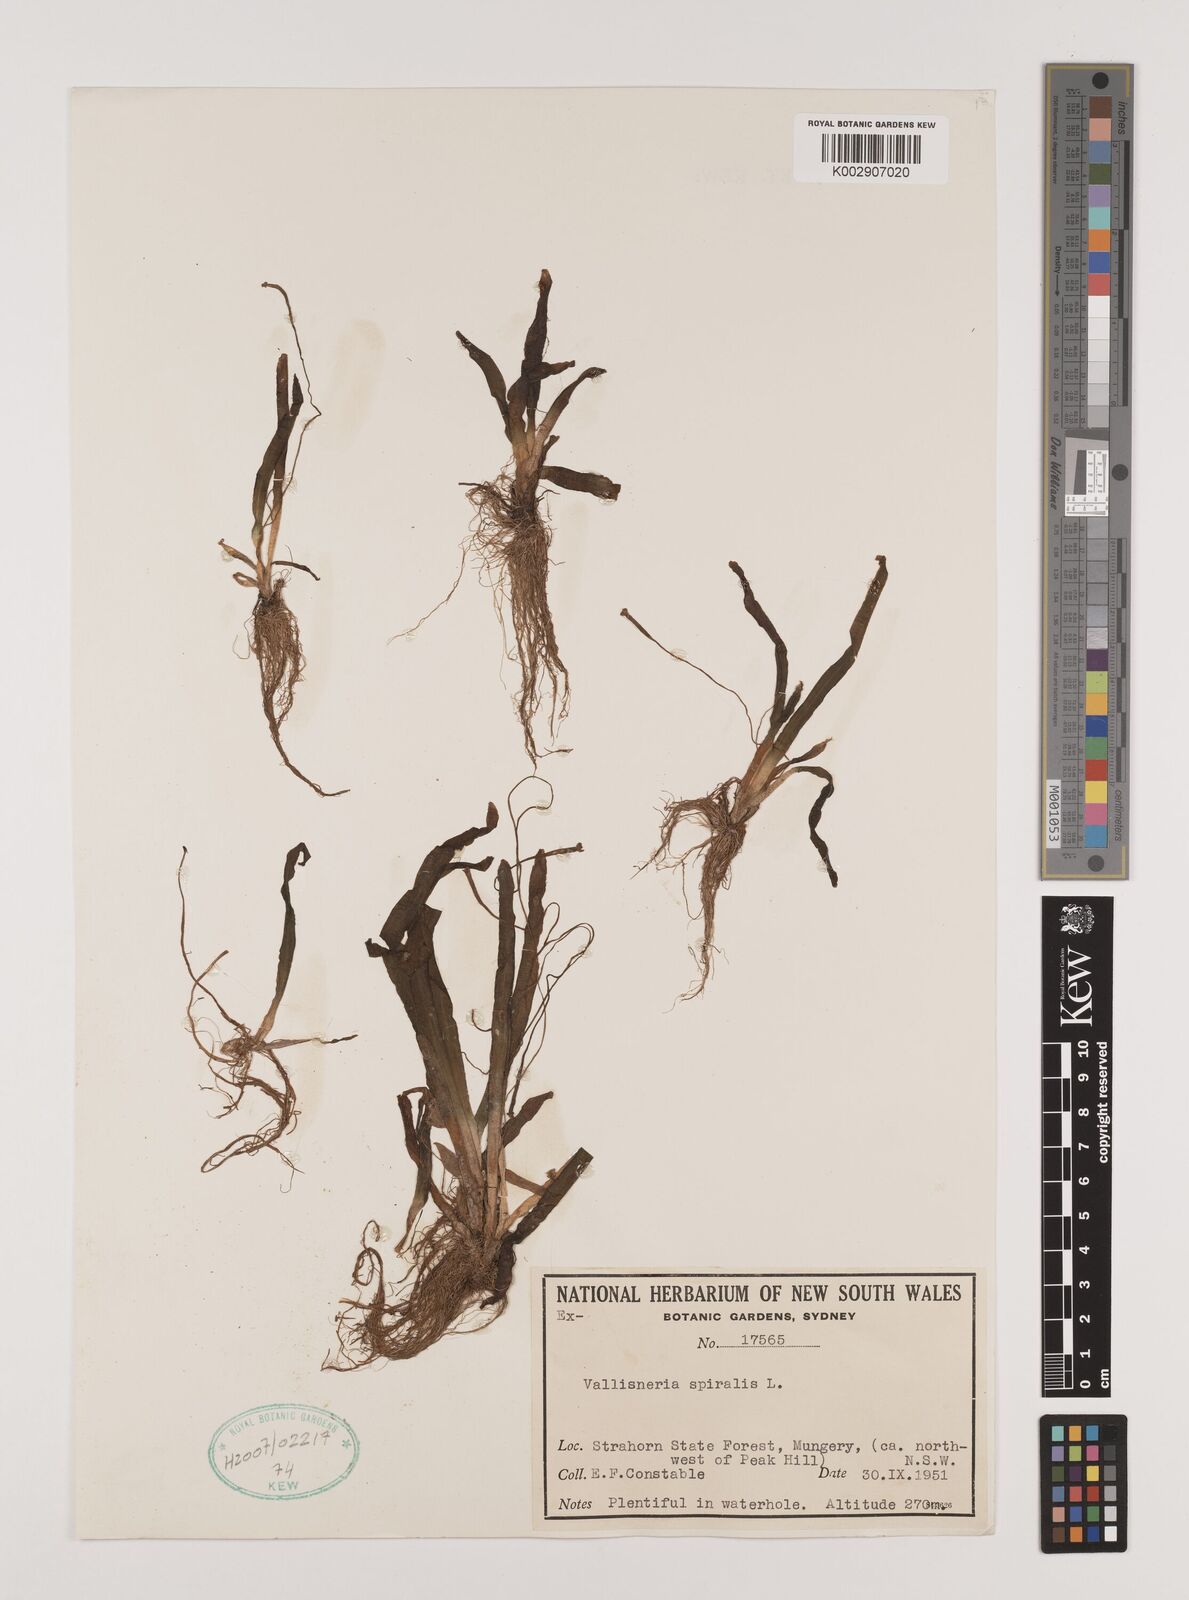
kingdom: Plantae
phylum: Tracheophyta
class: Liliopsida
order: Alismatales
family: Hydrocharitaceae
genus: Vallisneria
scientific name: Vallisneria spiralis
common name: Tapegrass
